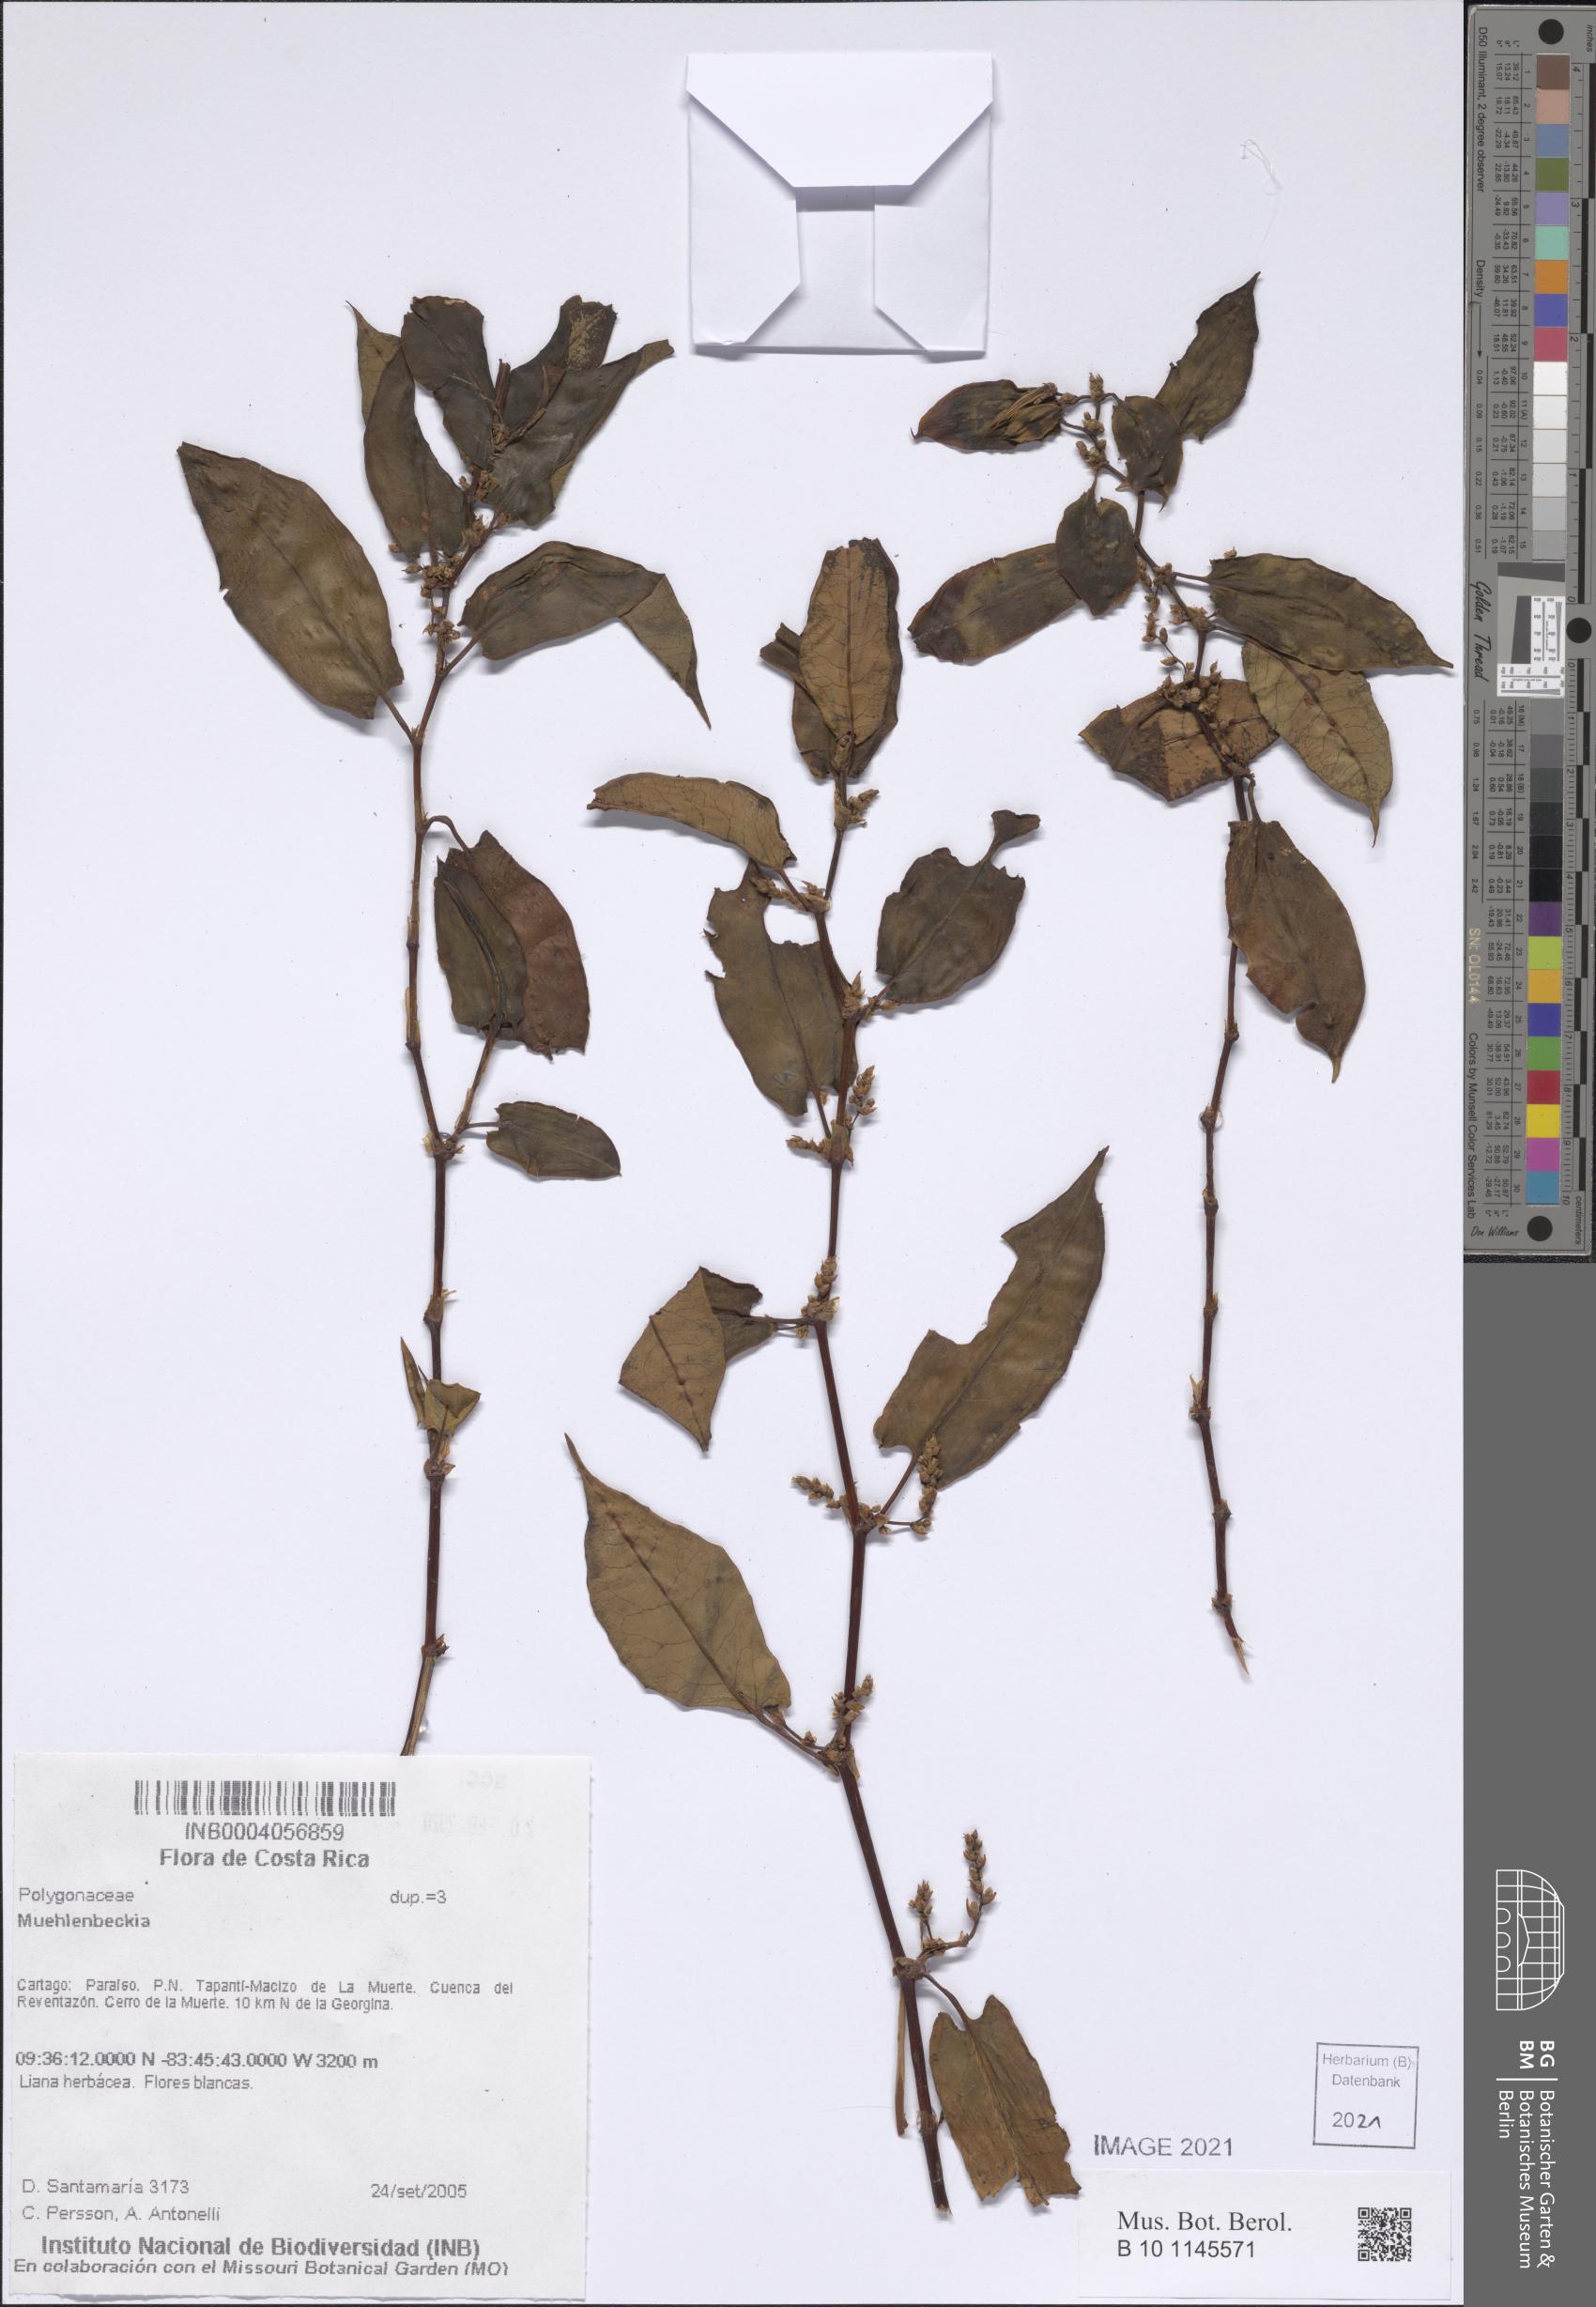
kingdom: Plantae
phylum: Tracheophyta
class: Magnoliopsida
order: Caryophyllales
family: Polygonaceae
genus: Muehlenbeckia
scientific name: Muehlenbeckia
